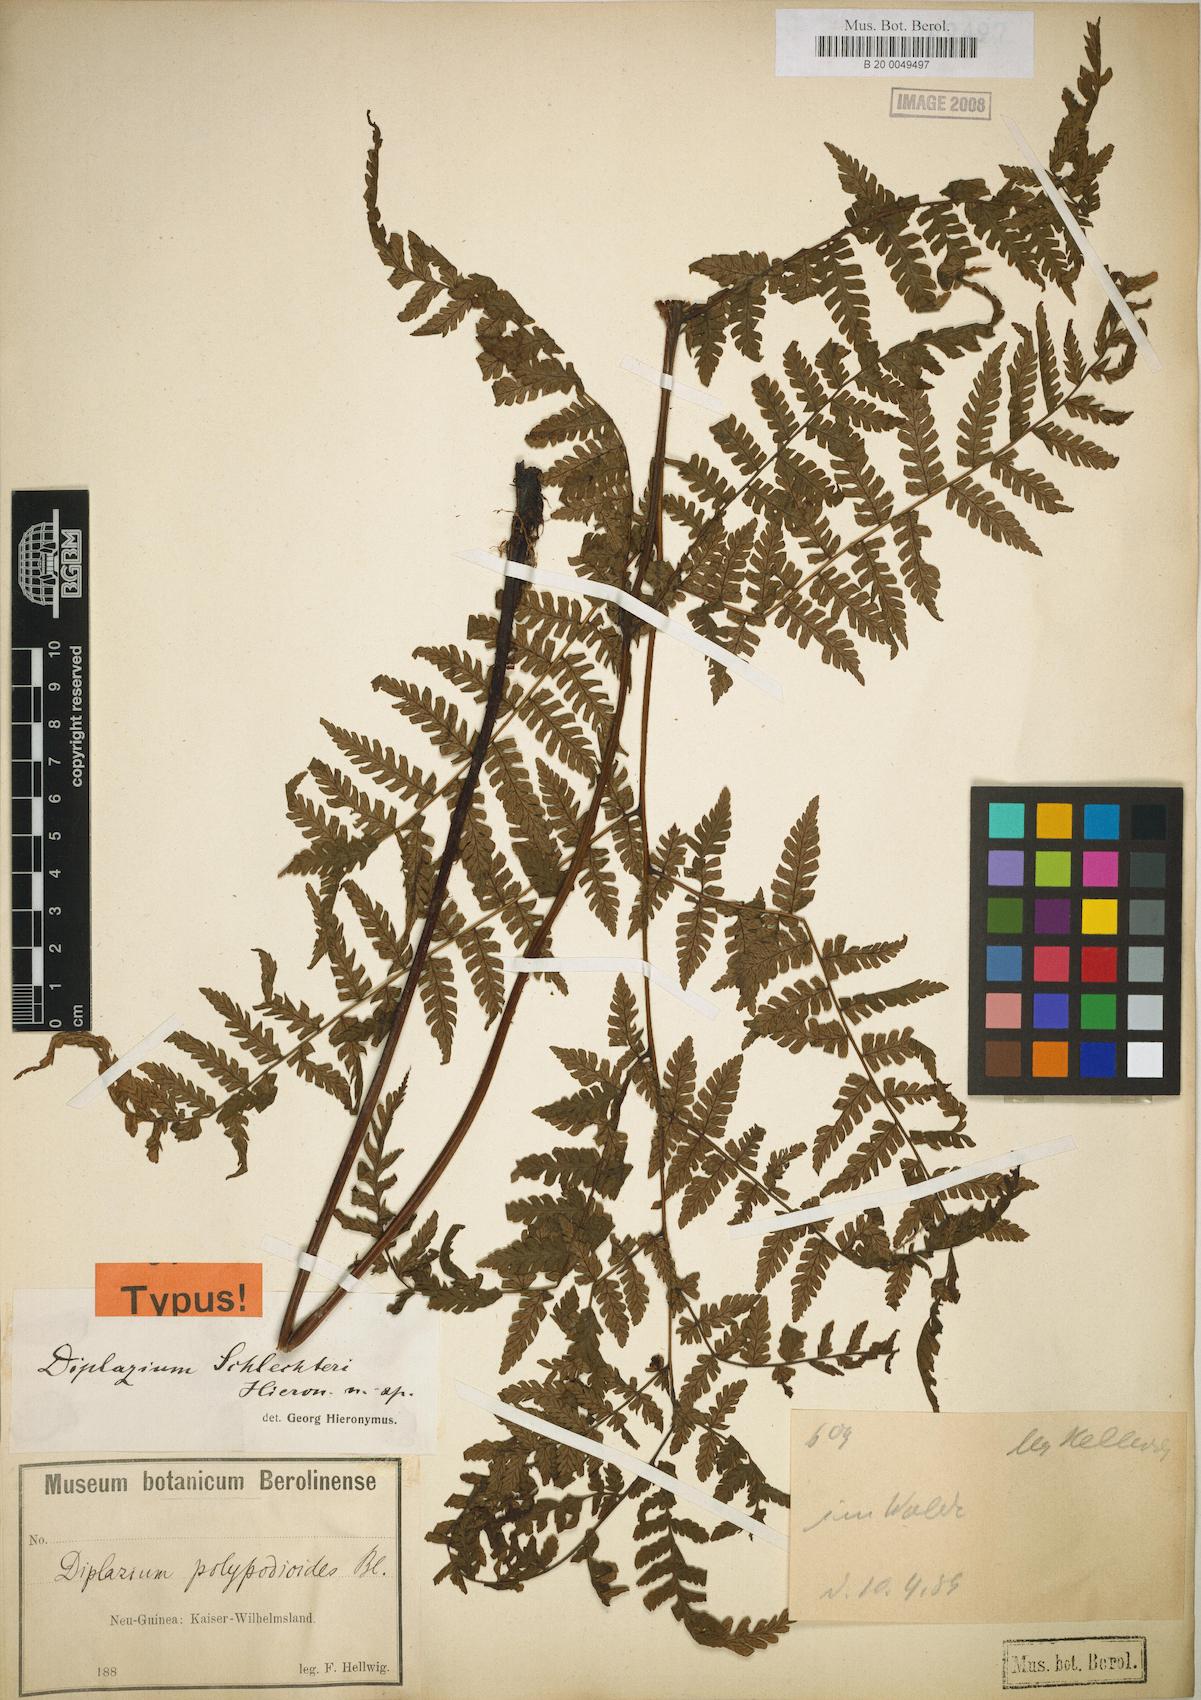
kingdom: Plantae
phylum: Tracheophyta
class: Polypodiopsida
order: Polypodiales
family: Athyriaceae
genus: Diplazium
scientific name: Diplazium schlechteri
